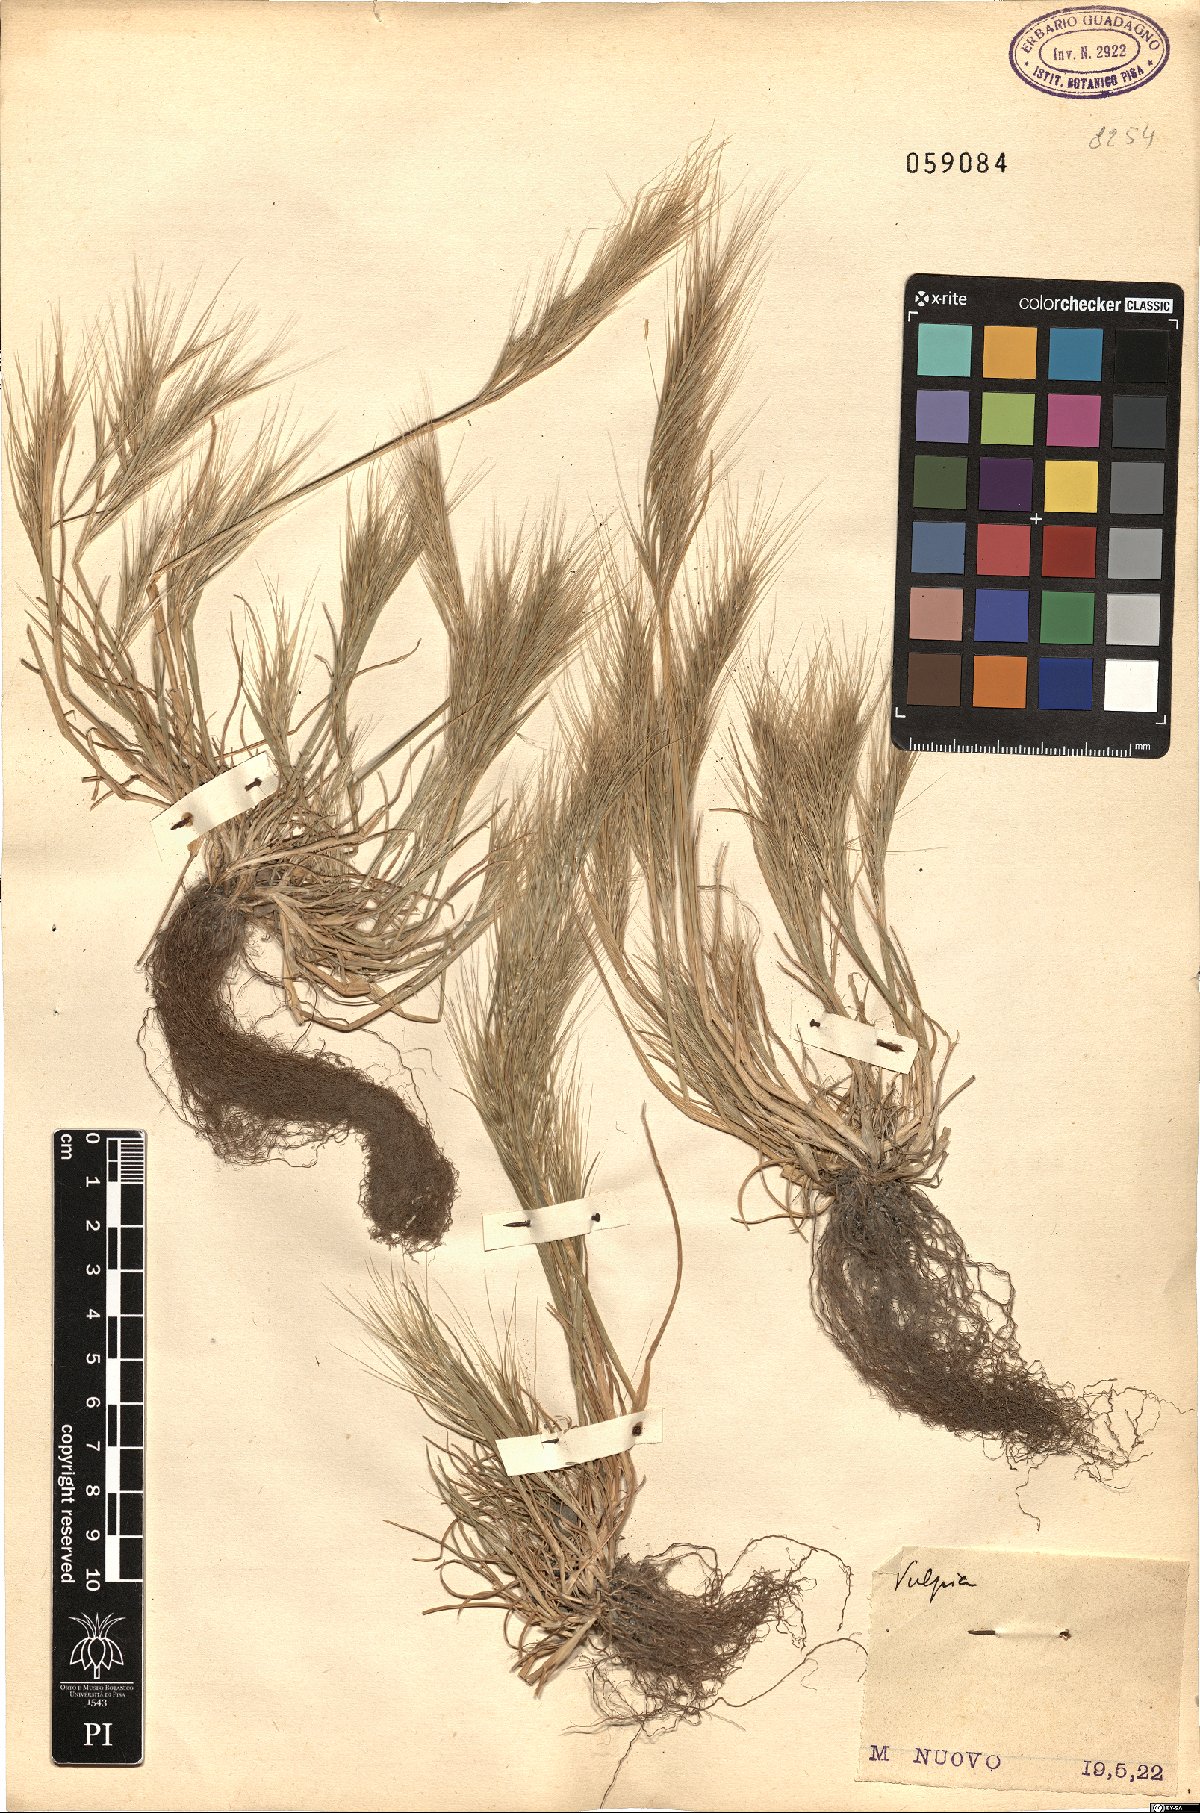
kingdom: Plantae
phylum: Tracheophyta
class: Liliopsida
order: Poales
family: Poaceae
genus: Festuca
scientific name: Festuca
